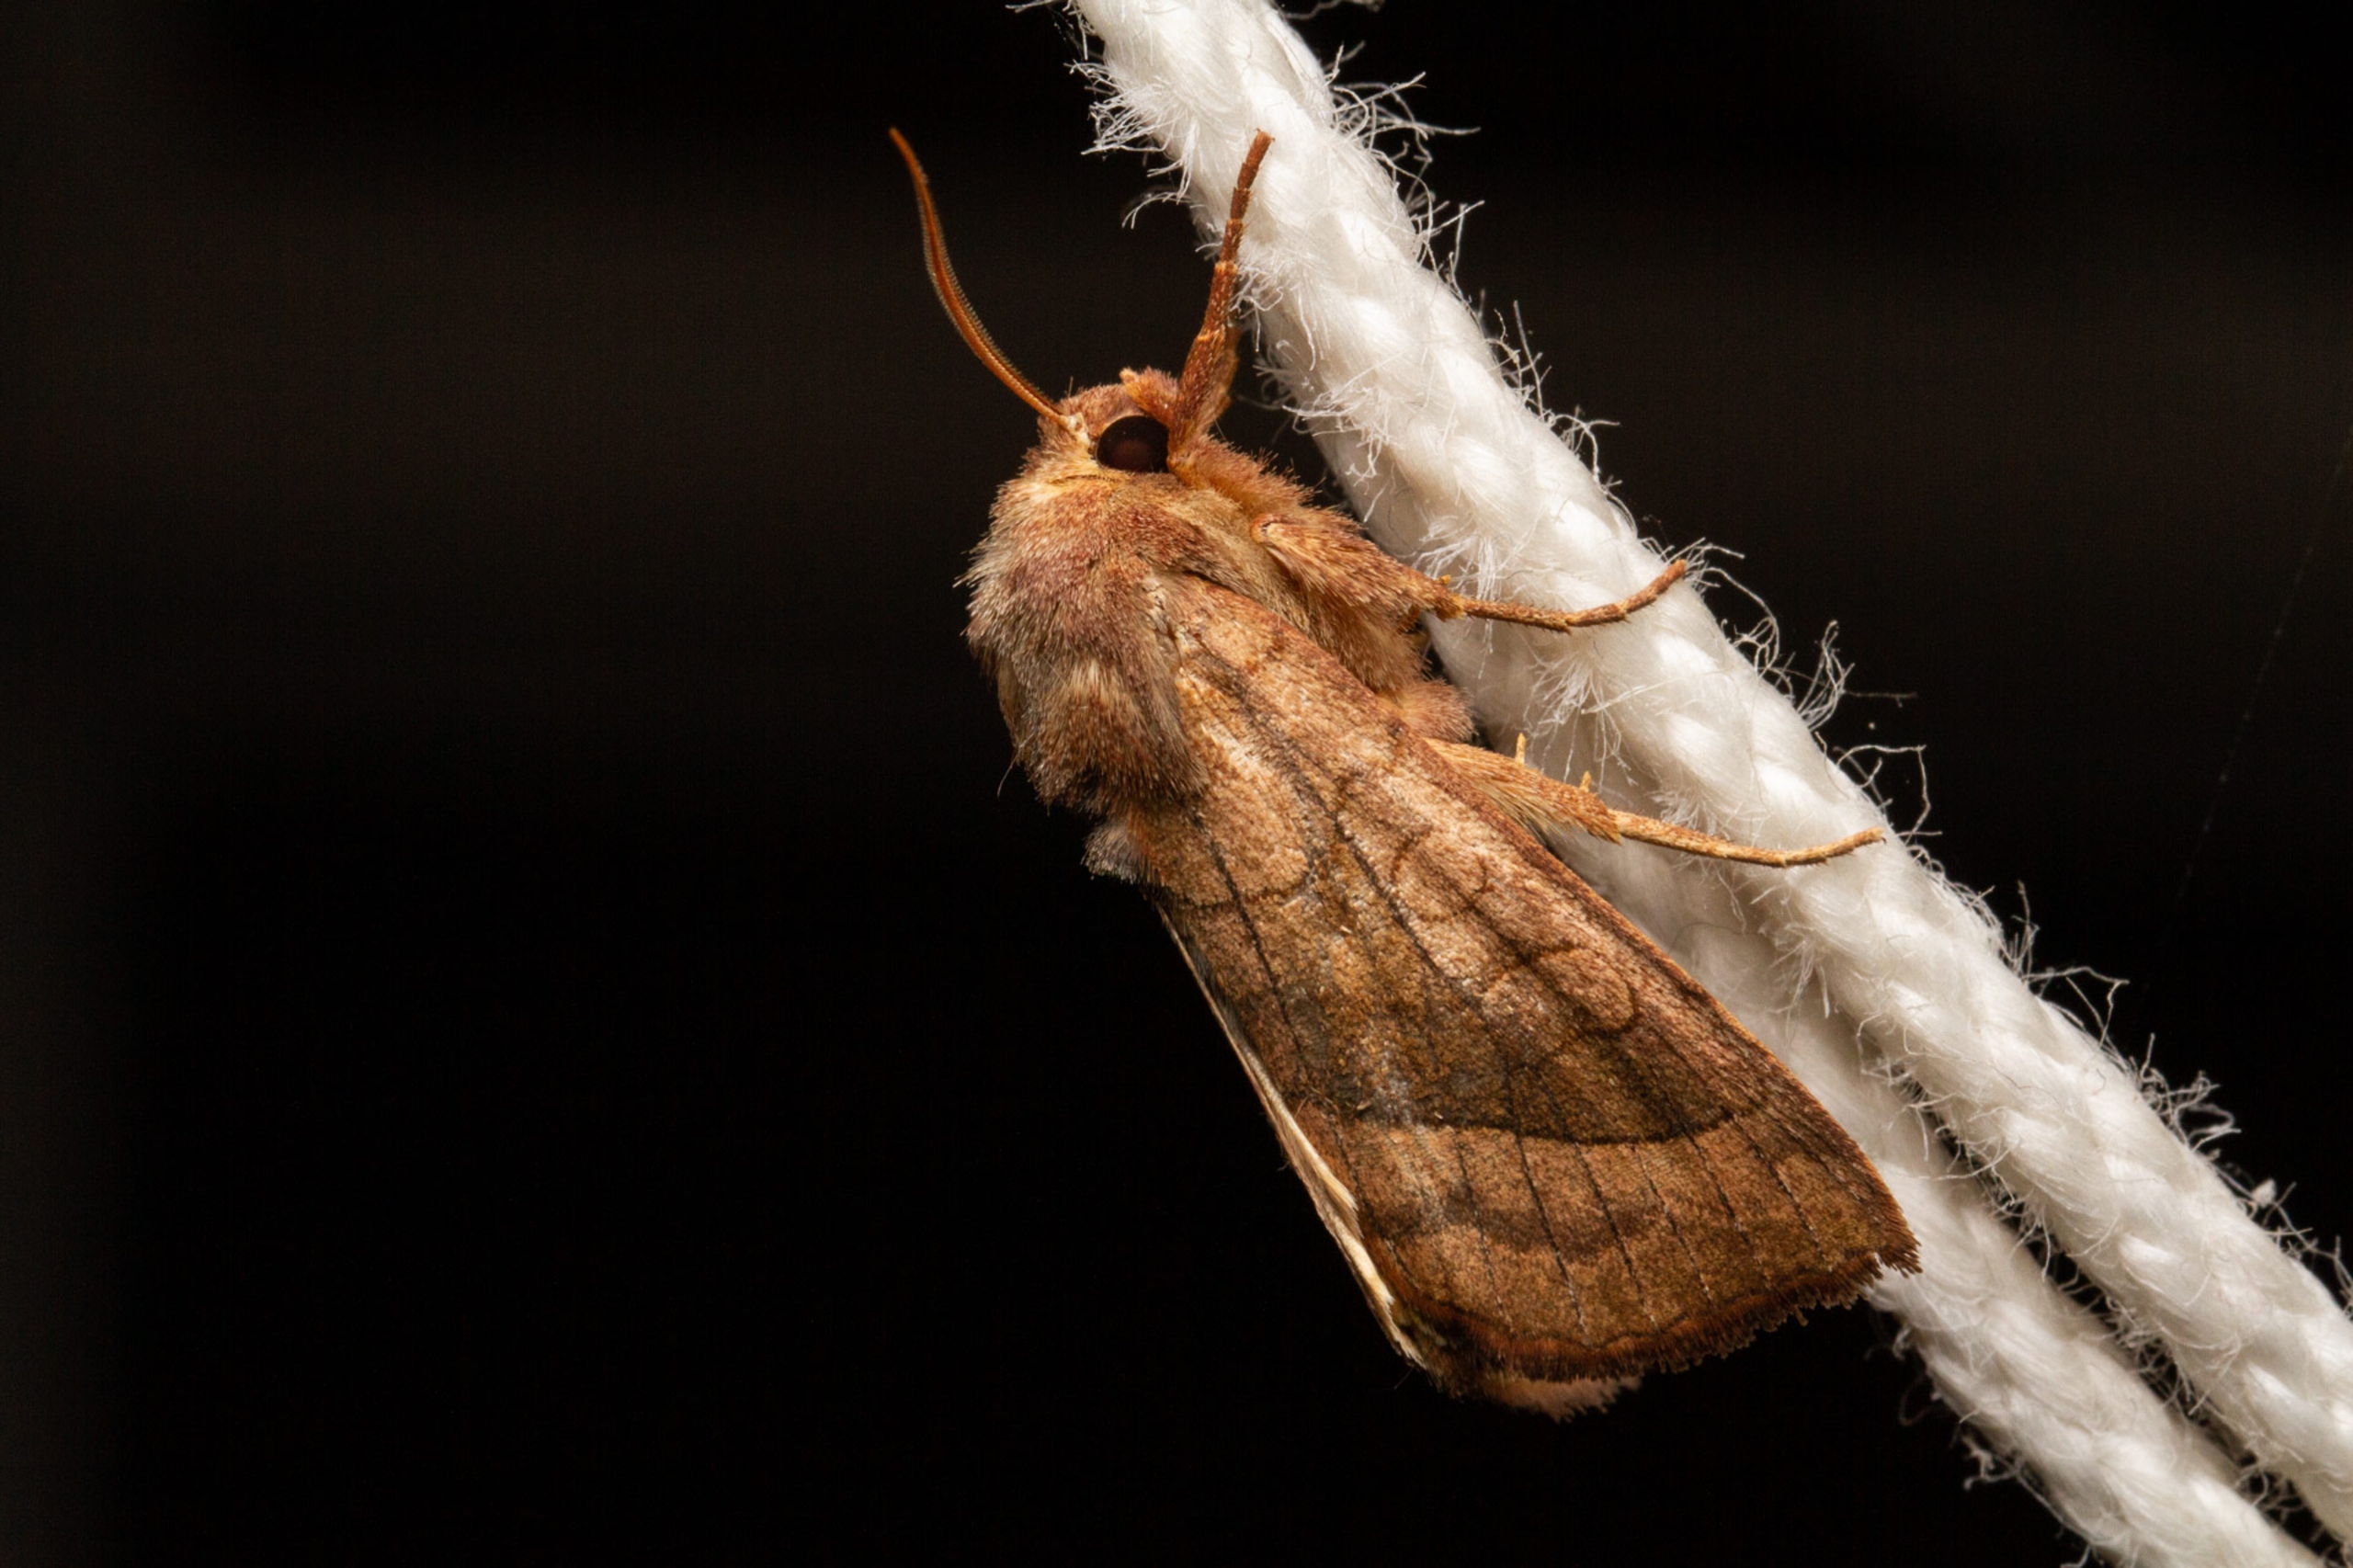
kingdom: Animalia
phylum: Arthropoda
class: Insecta
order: Lepidoptera
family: Noctuidae
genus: Hydraecia
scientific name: Hydraecia micacea
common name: Kartoffelborer
